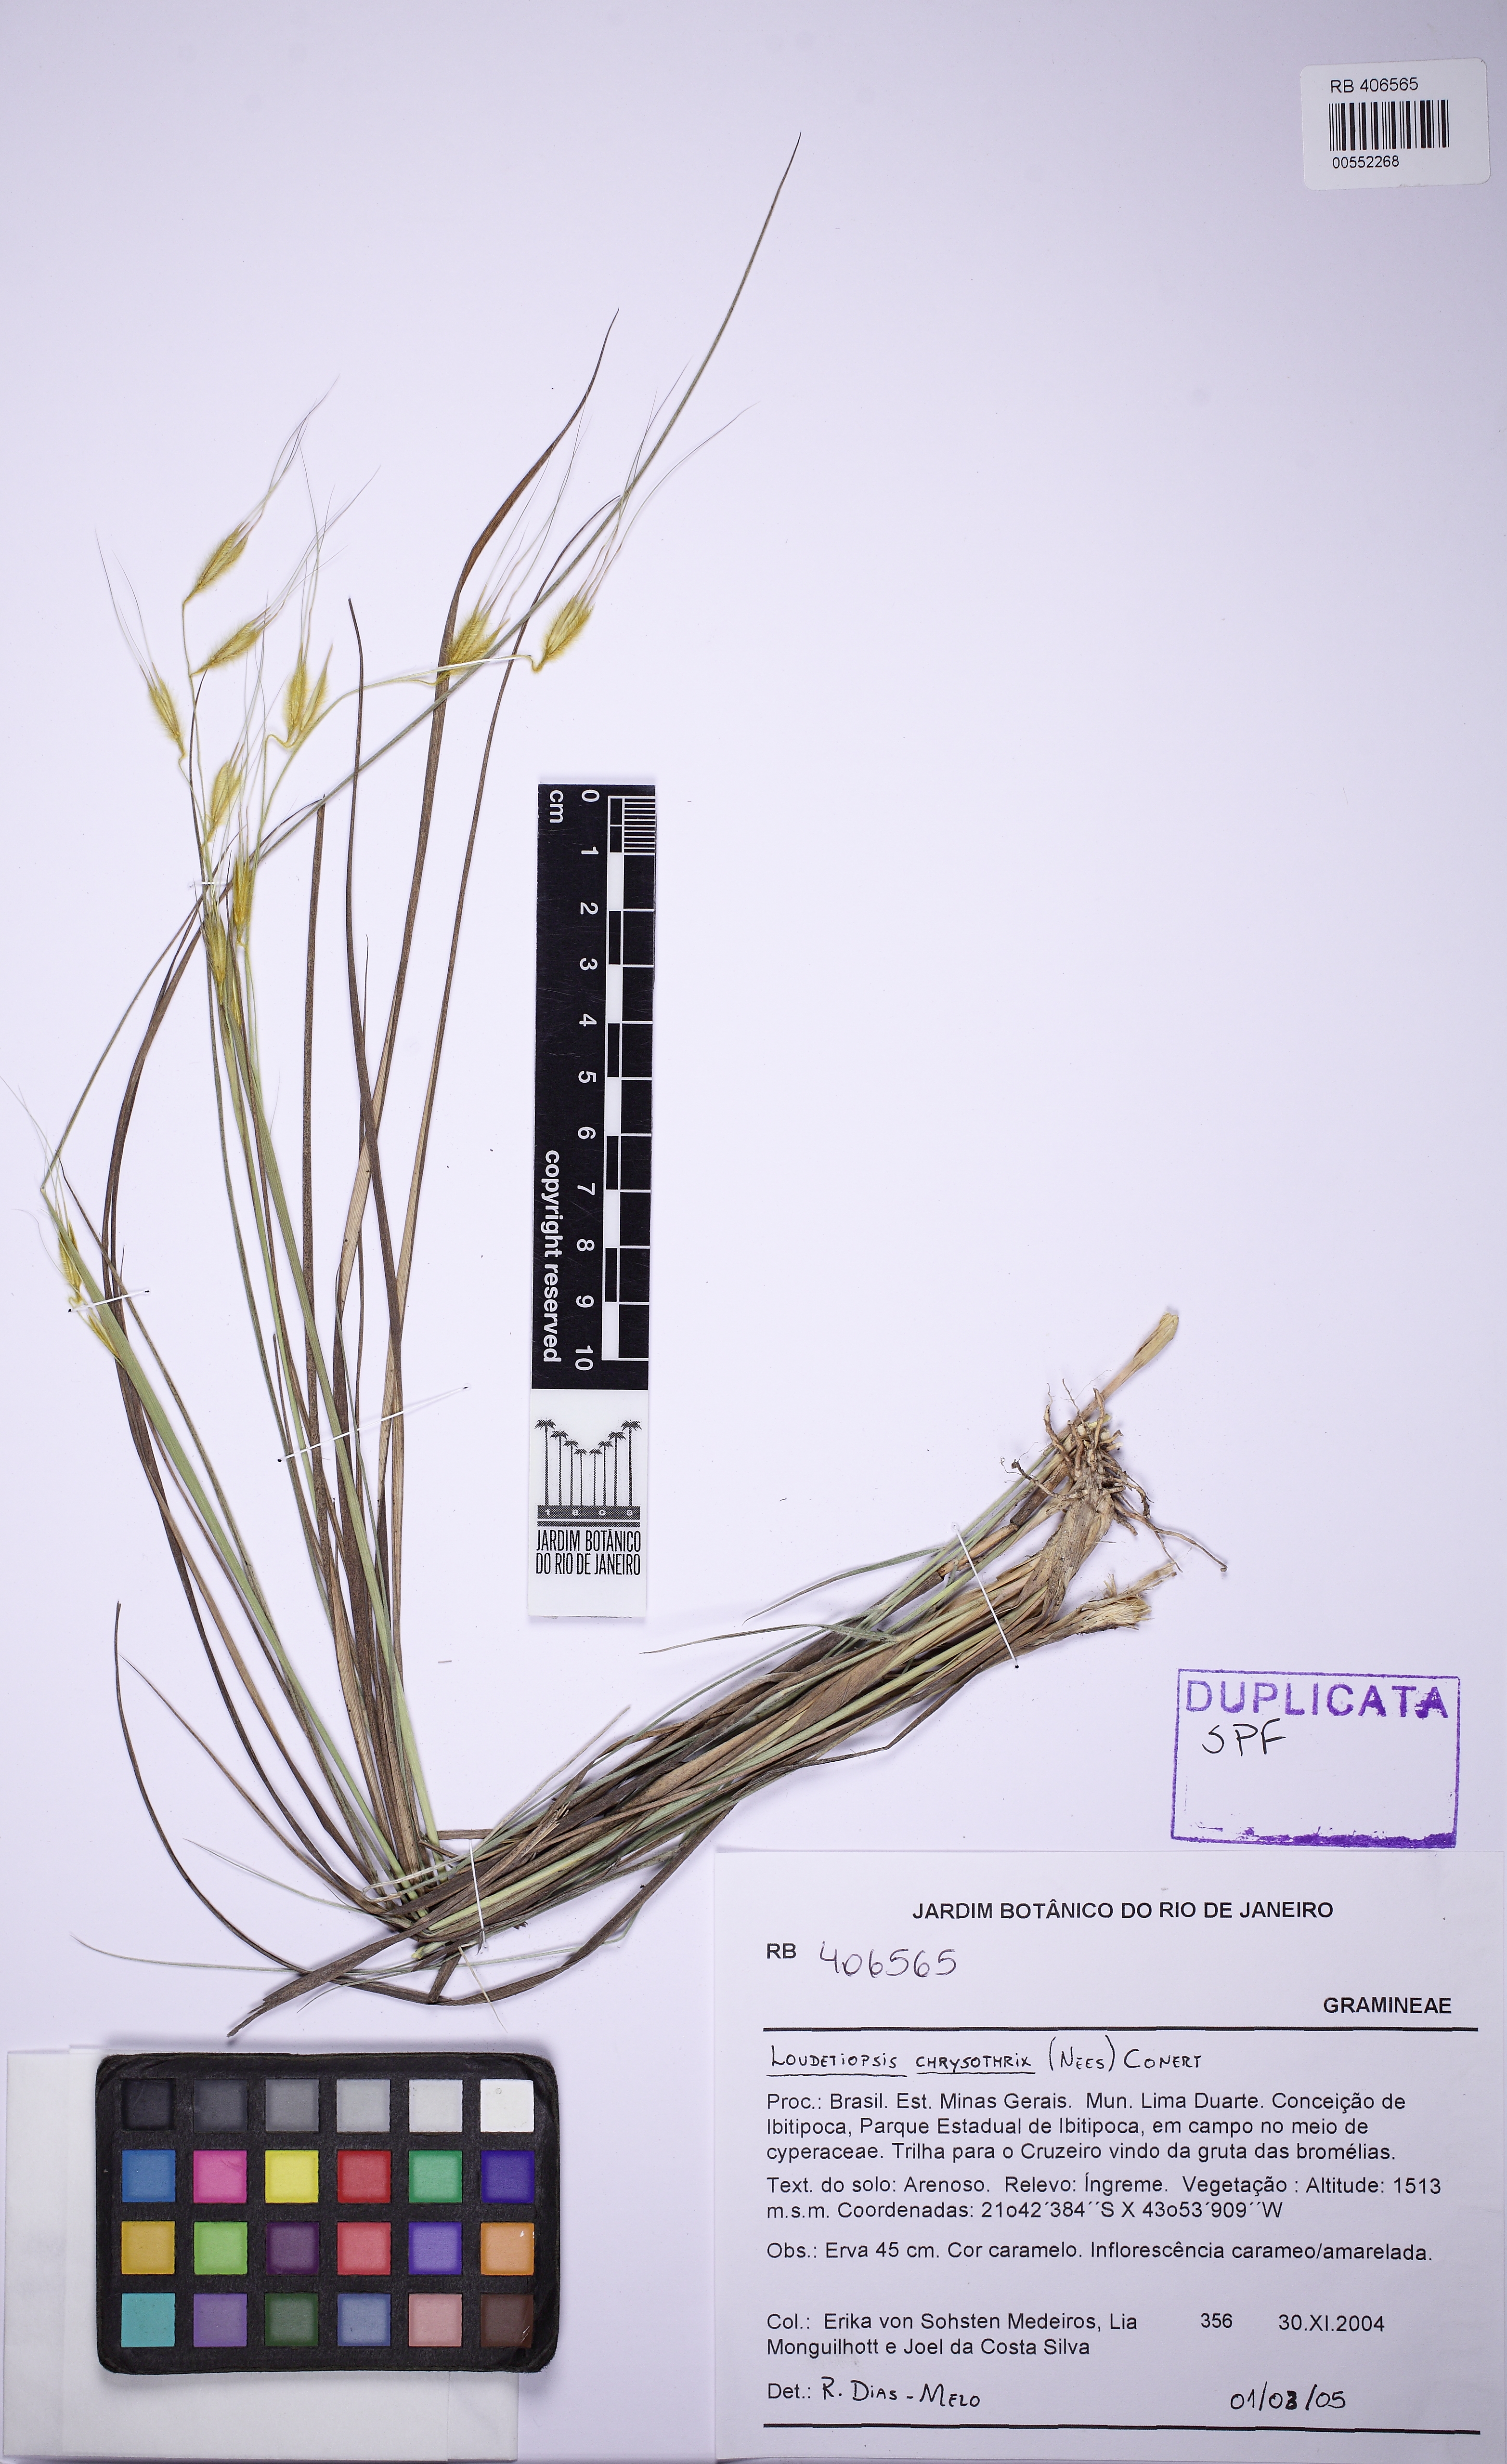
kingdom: Plantae
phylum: Tracheophyta
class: Liliopsida
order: Poales
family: Poaceae
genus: Loudetiopsis
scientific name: Loudetiopsis chrysothrix
